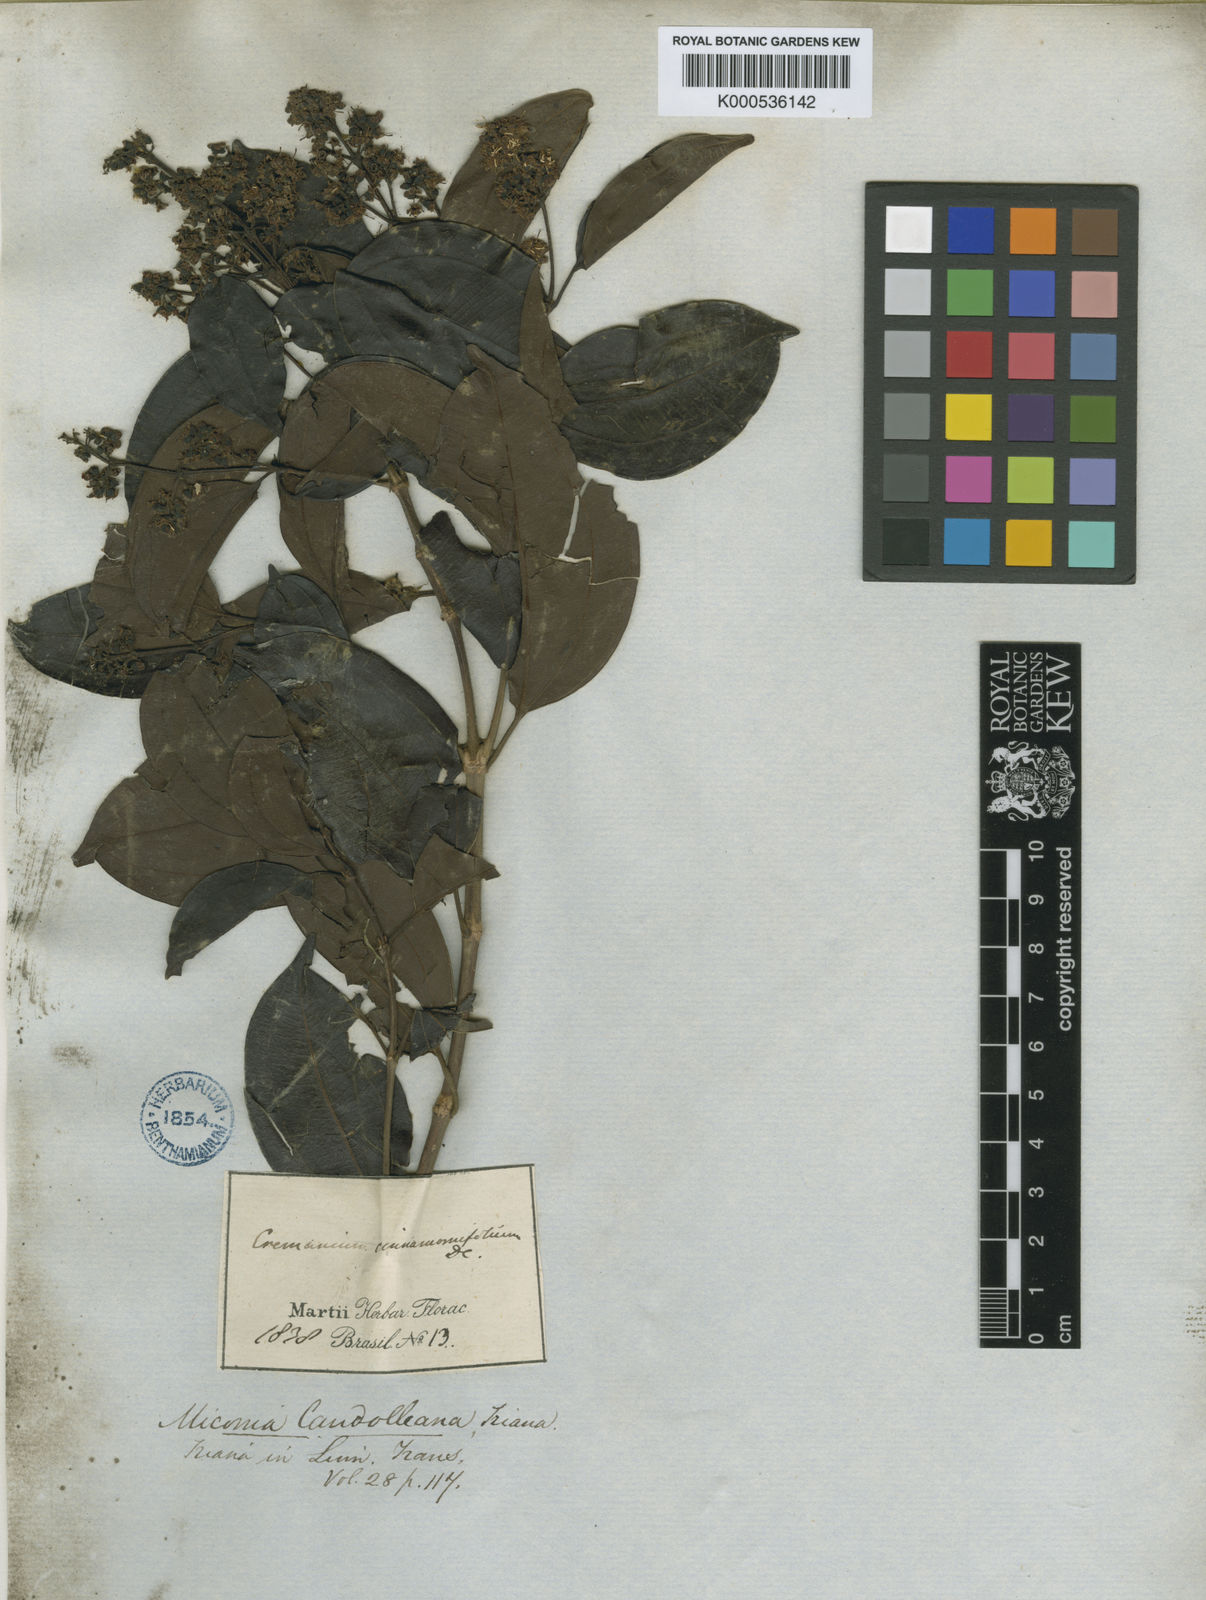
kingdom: Plantae
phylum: Tracheophyta
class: Magnoliopsida
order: Myrtales
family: Melastomataceae
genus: Miconia
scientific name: Miconia cinnamomifolia
